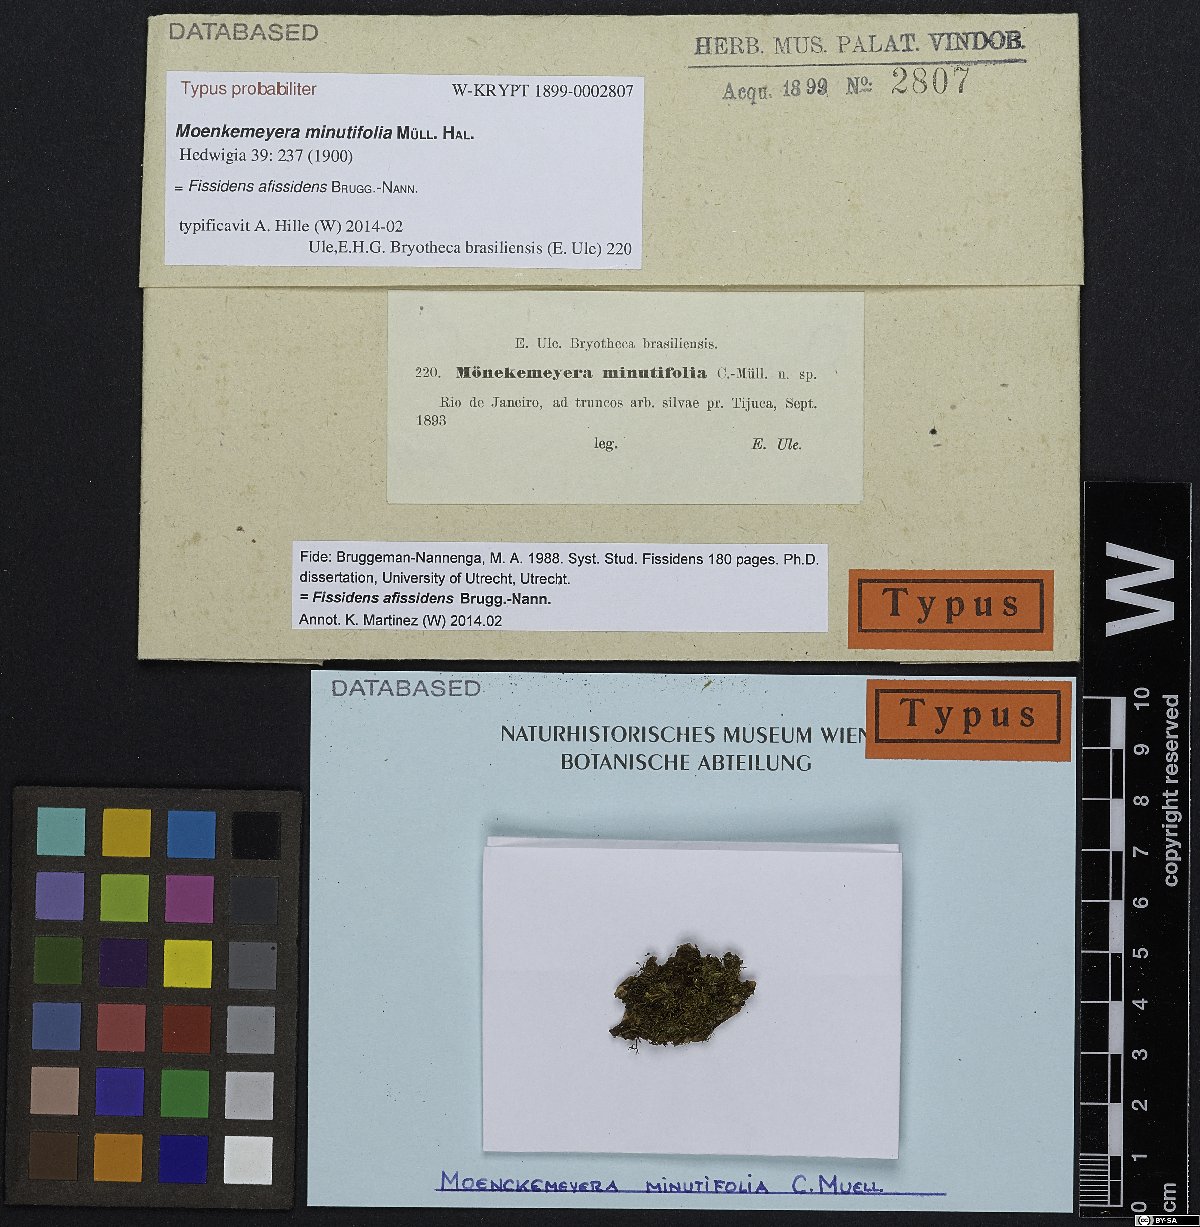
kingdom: Plantae
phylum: Bryophyta
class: Bryopsida
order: Dicranales
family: Fissidentaceae
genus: Fissidens
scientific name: Fissidens lagenarius
